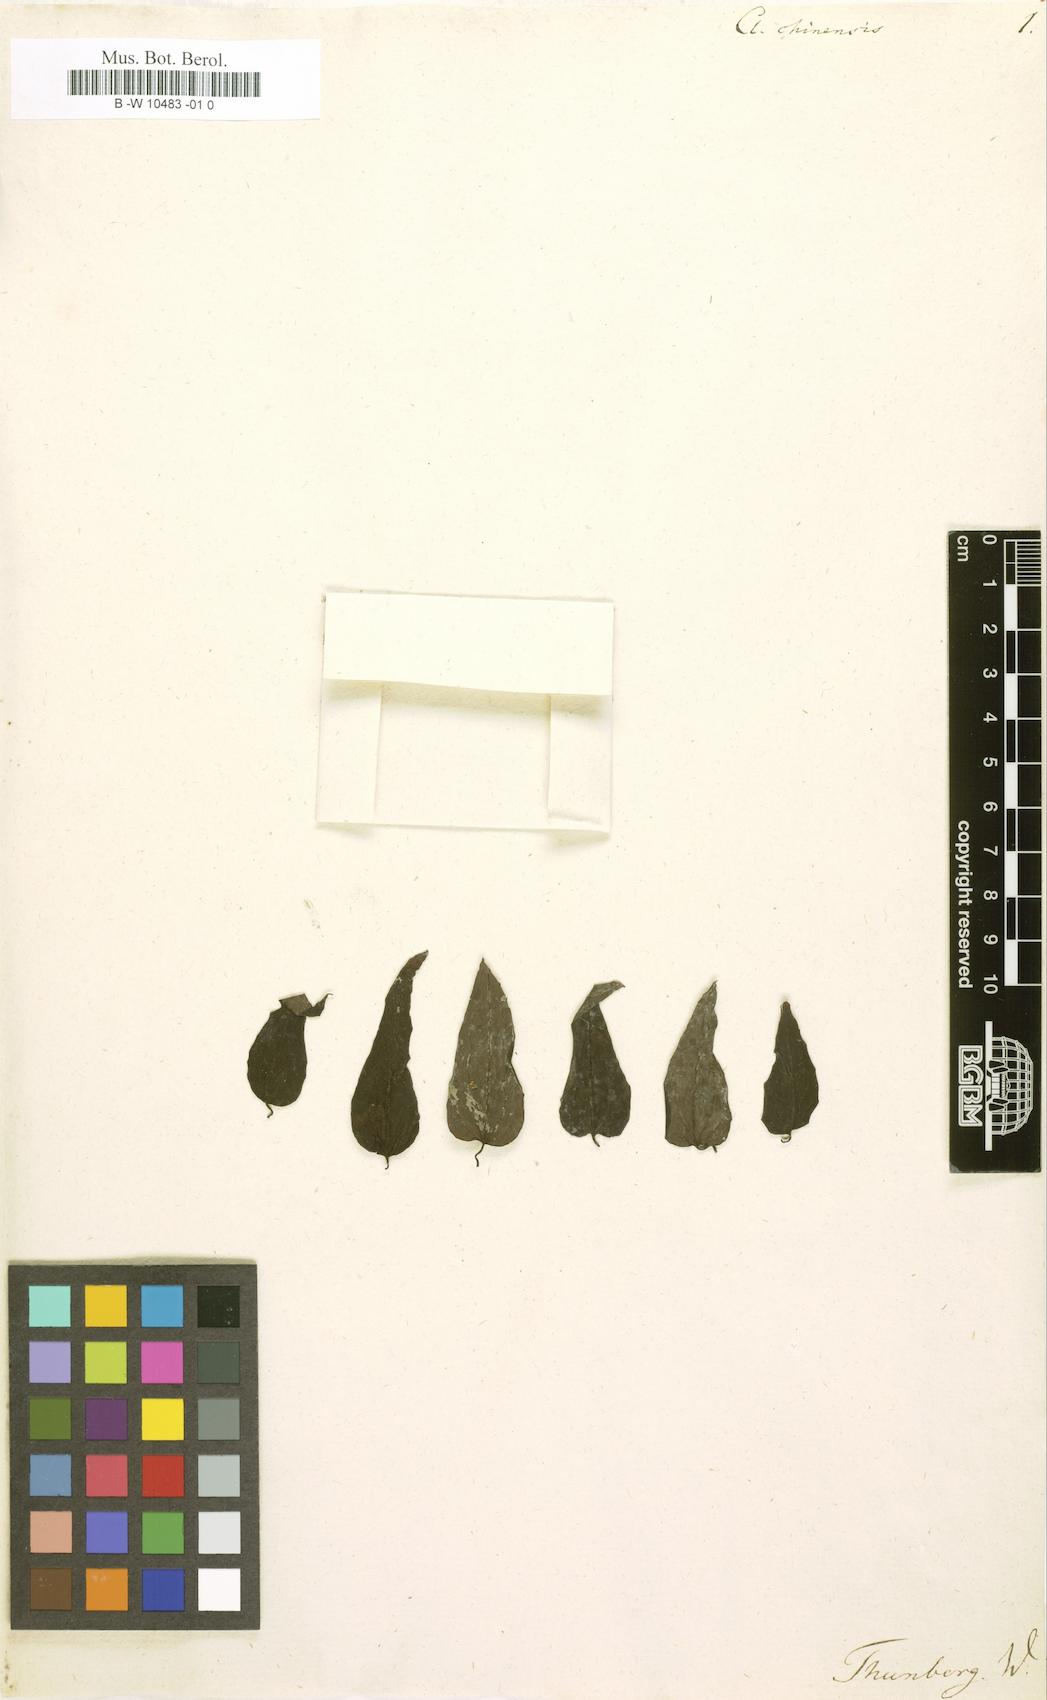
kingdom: Plantae
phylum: Tracheophyta
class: Magnoliopsida
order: Ranunculales
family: Ranunculaceae
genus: Clematis
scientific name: Clematis chinensis
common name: Chinese clematis
